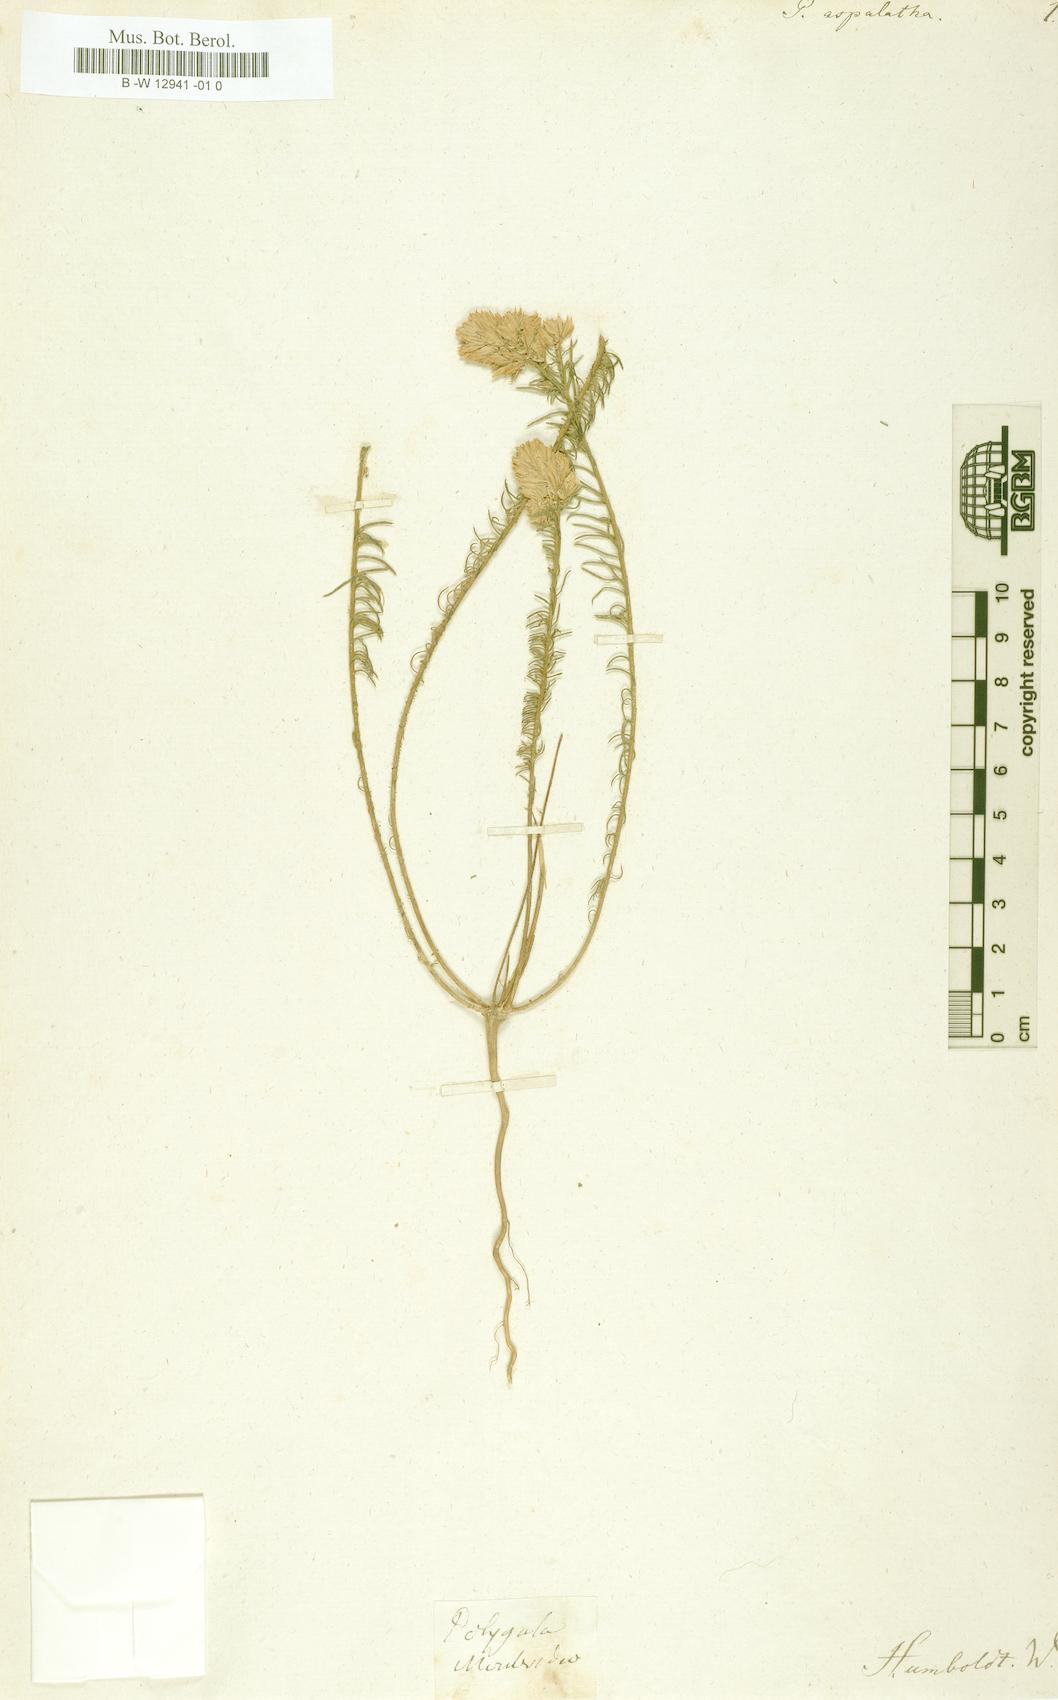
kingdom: Plantae
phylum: Tracheophyta
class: Magnoliopsida
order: Fabales
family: Polygalaceae
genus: Polygala
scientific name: Polygala aspalatha
